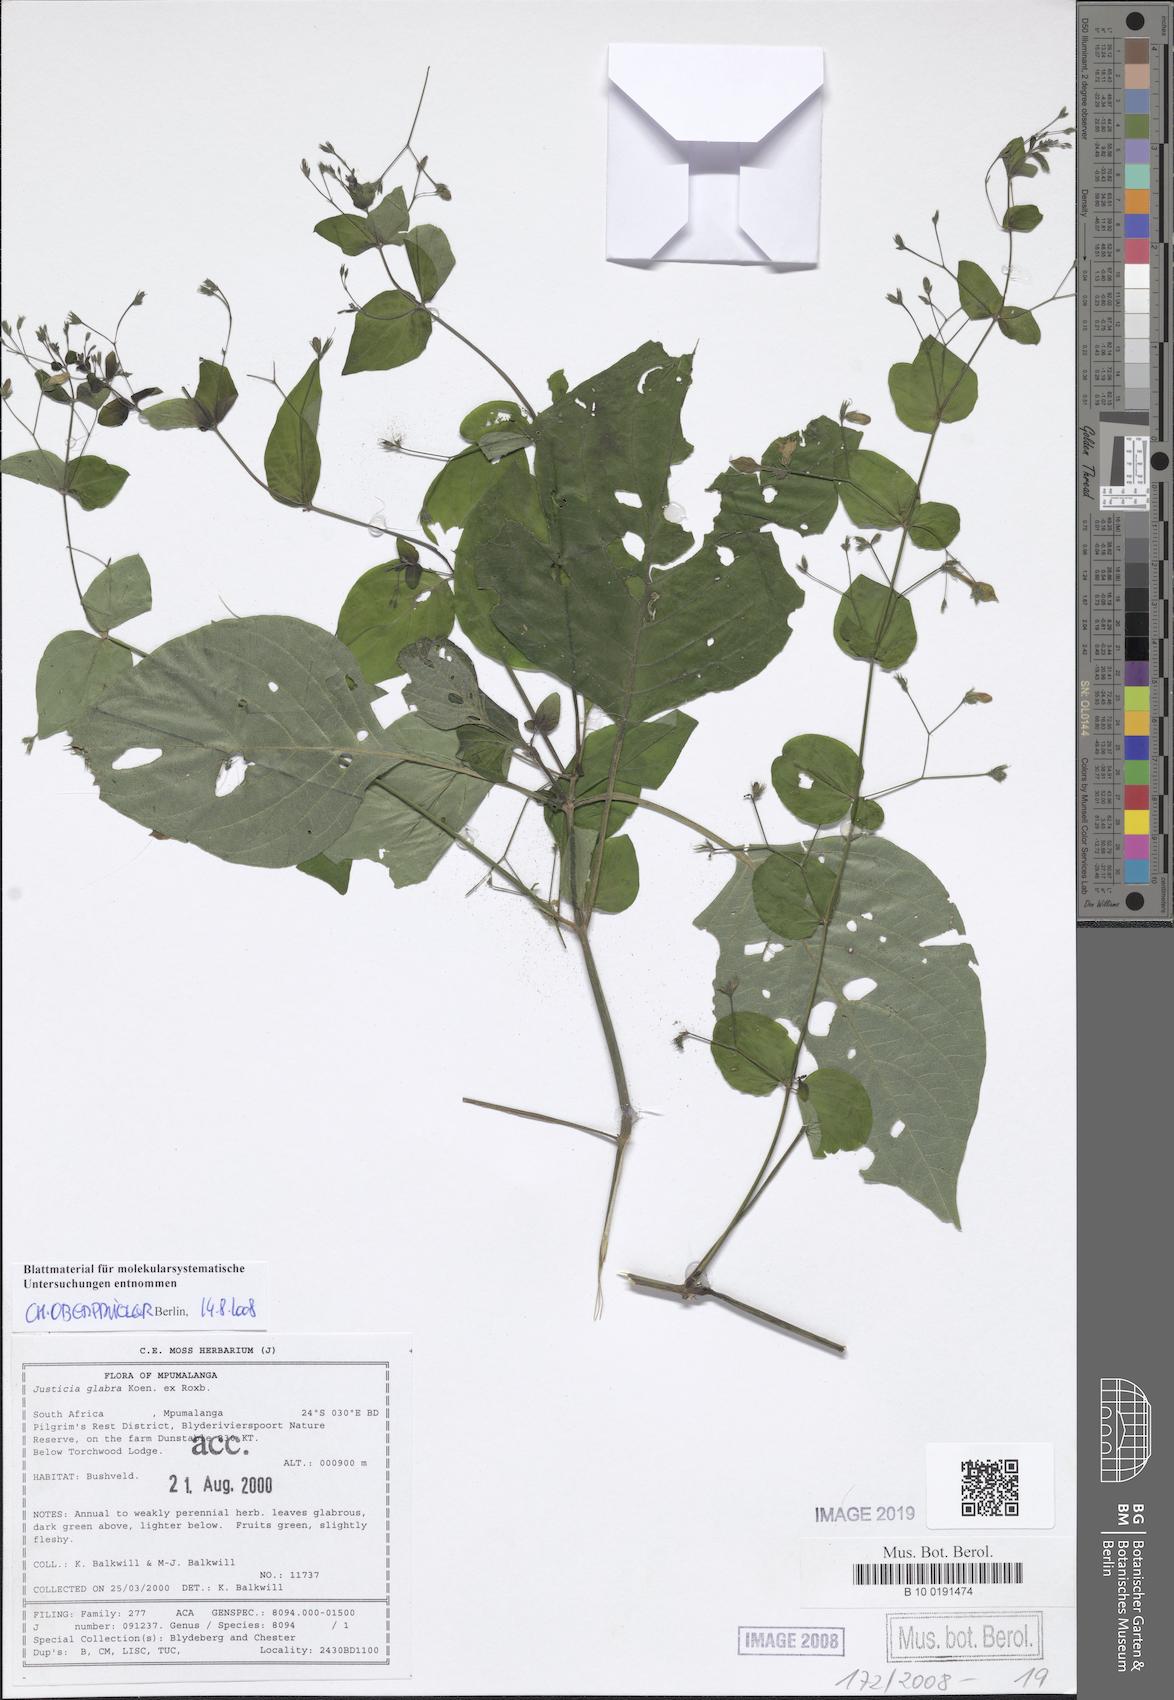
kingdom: Plantae
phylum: Tracheophyta
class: Magnoliopsida
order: Lamiales
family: Acanthaceae
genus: Justicia
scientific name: Justicia scandens
